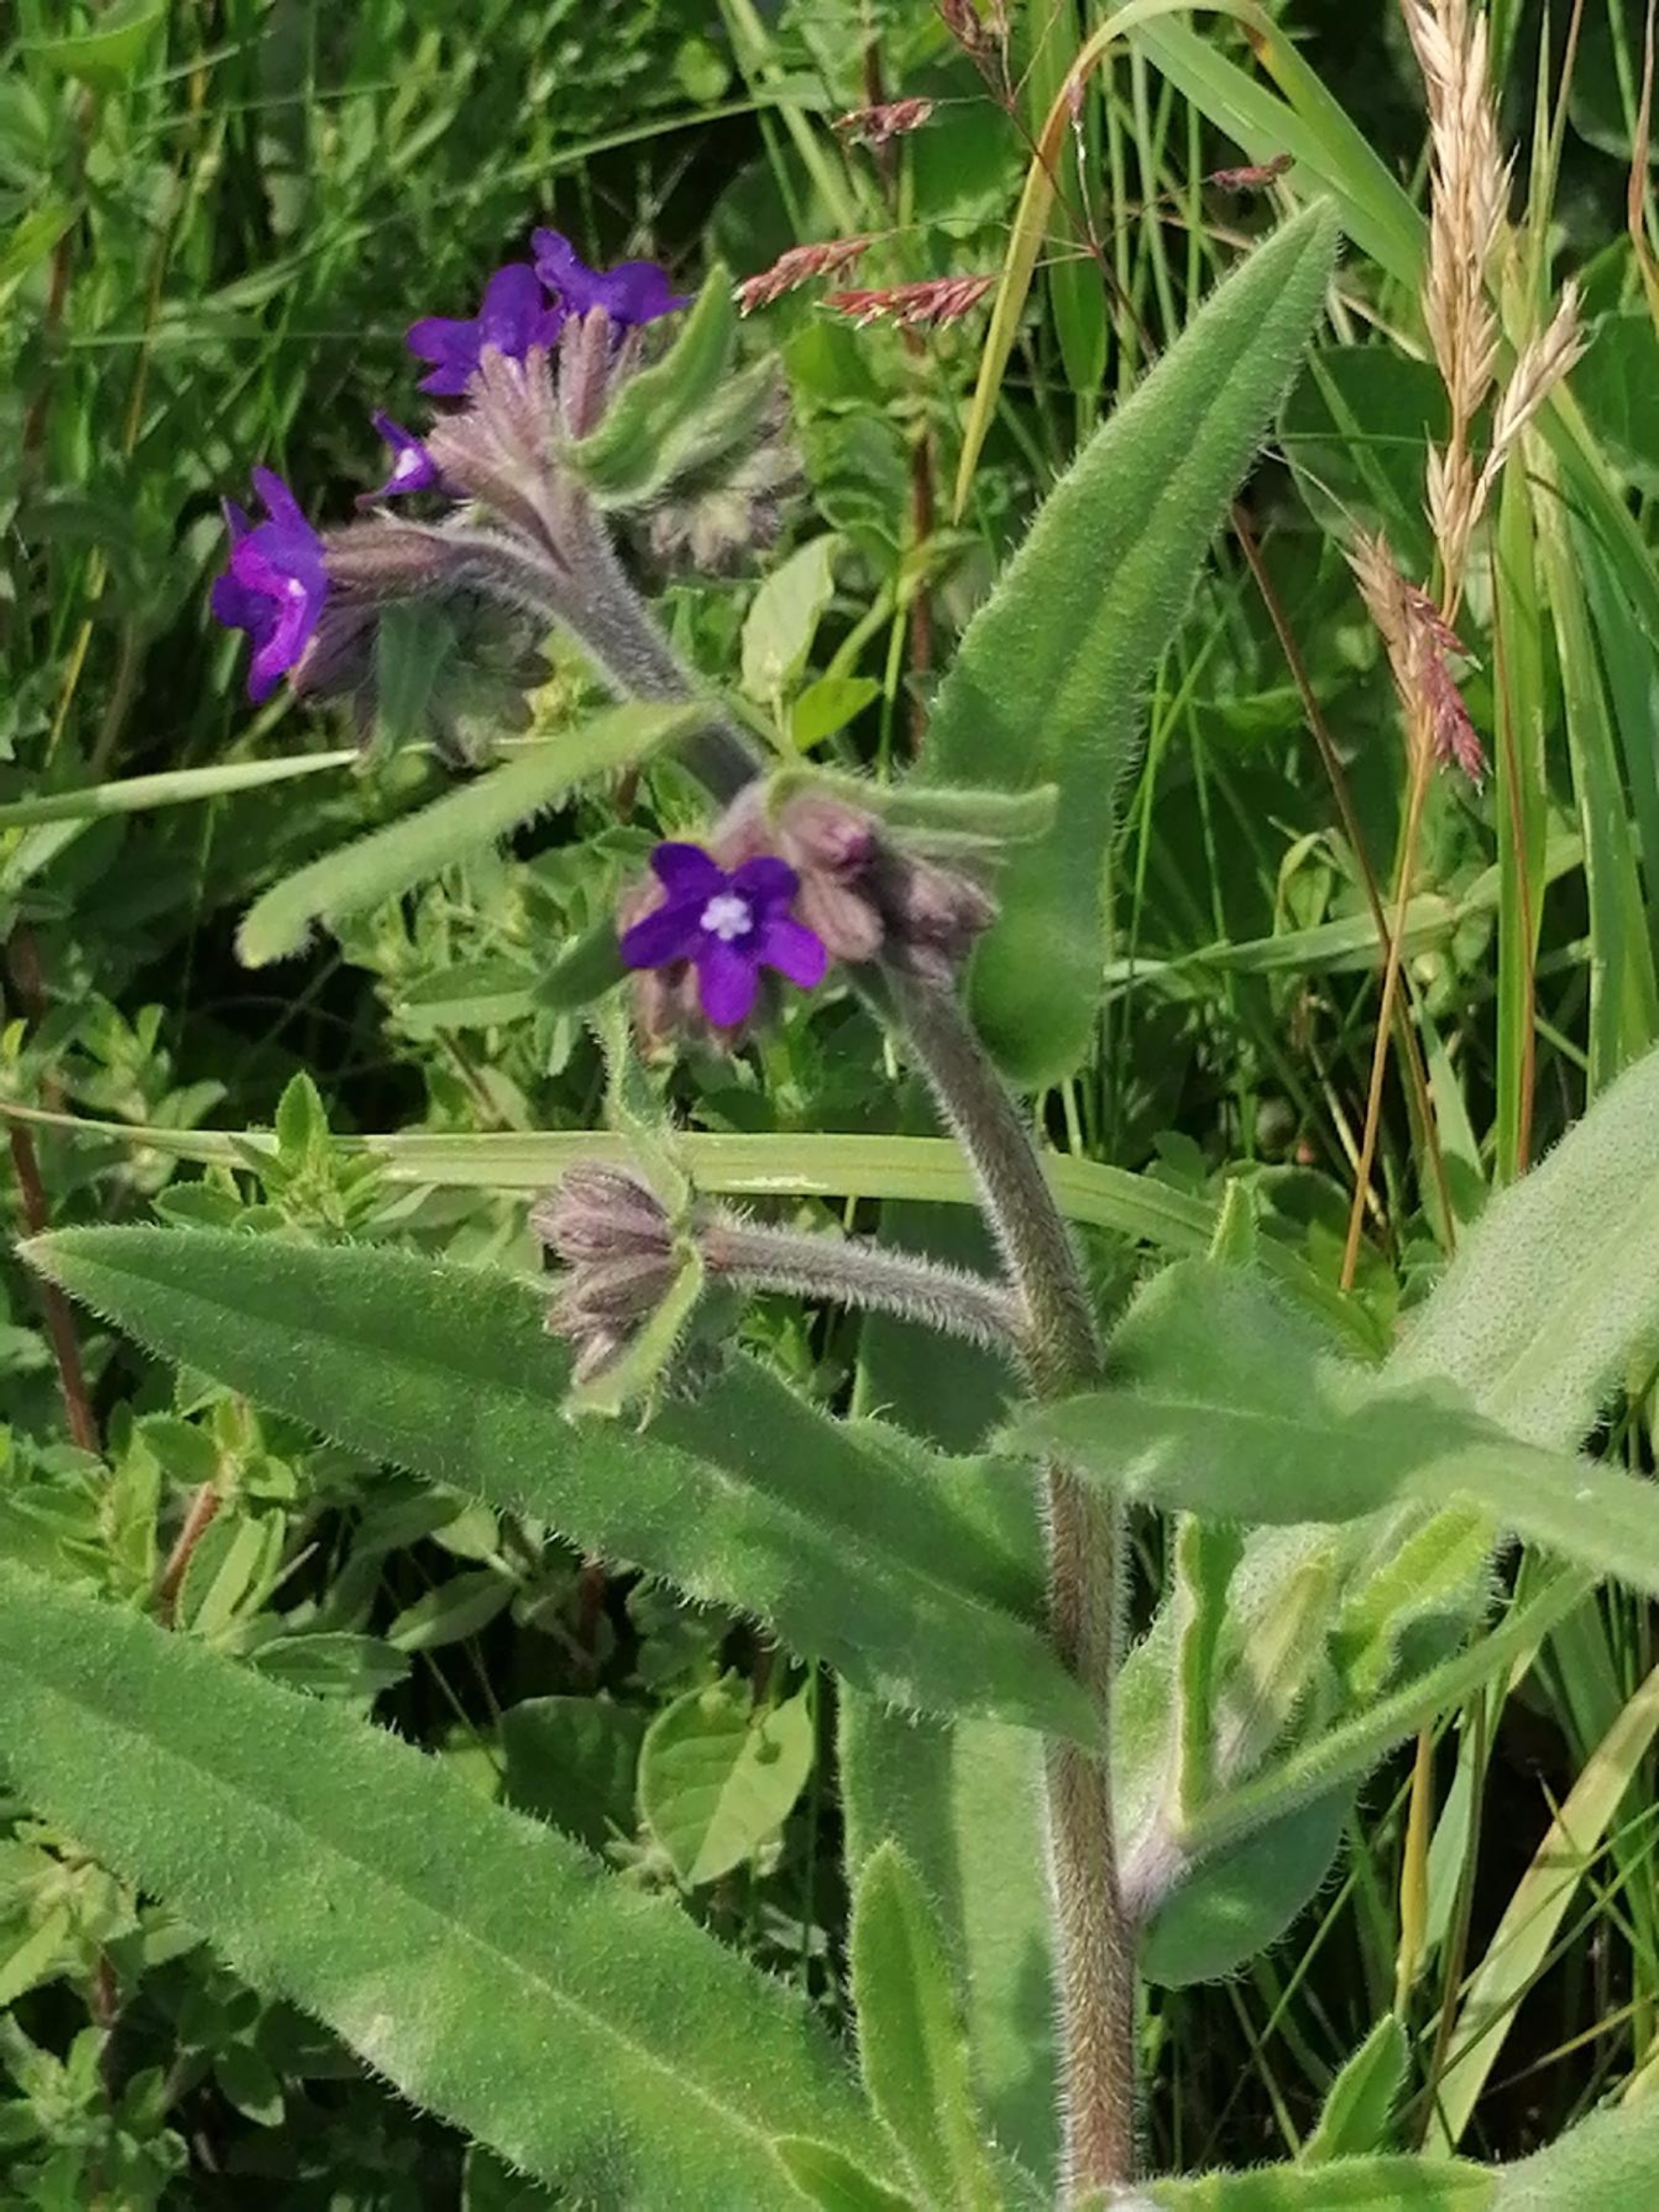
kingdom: Plantae
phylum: Tracheophyta
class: Magnoliopsida
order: Boraginales
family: Boraginaceae
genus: Anchusa
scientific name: Anchusa officinalis
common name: Læge-oksetunge
